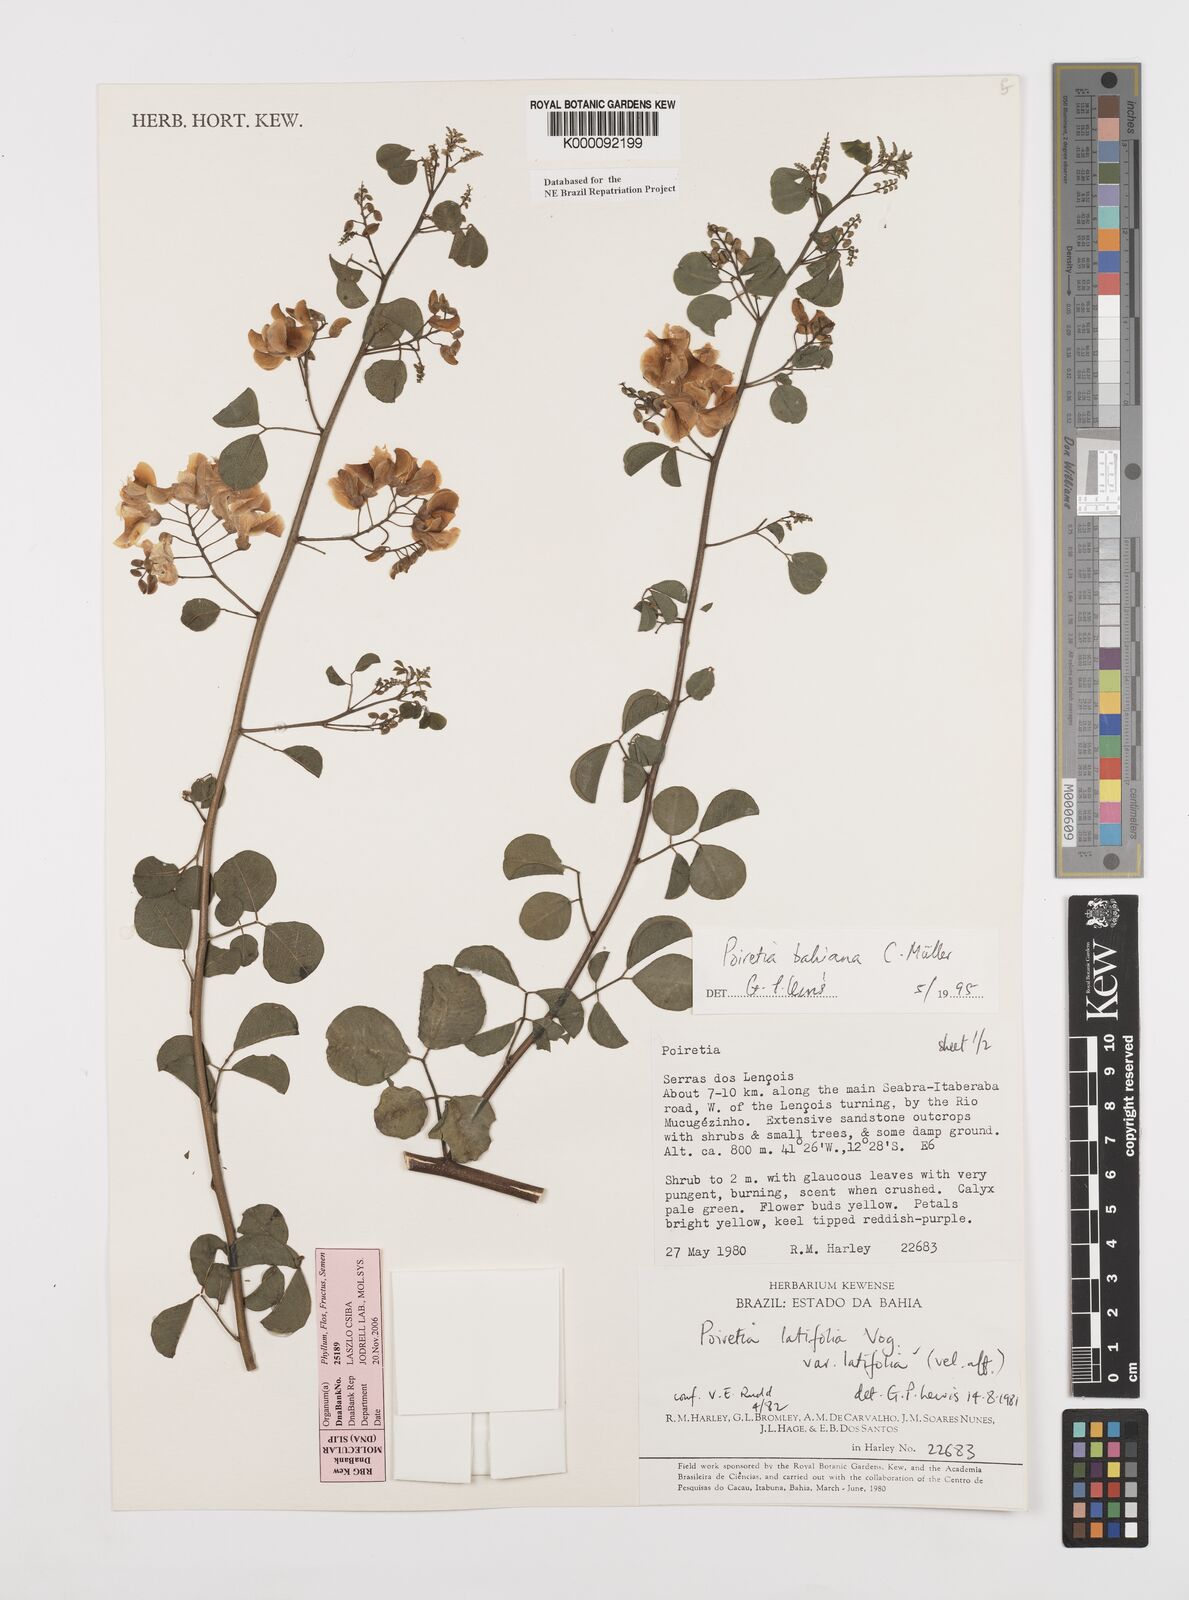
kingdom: Plantae
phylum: Tracheophyta
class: Magnoliopsida
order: Fabales
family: Fabaceae
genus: Poiretia
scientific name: Poiretia
